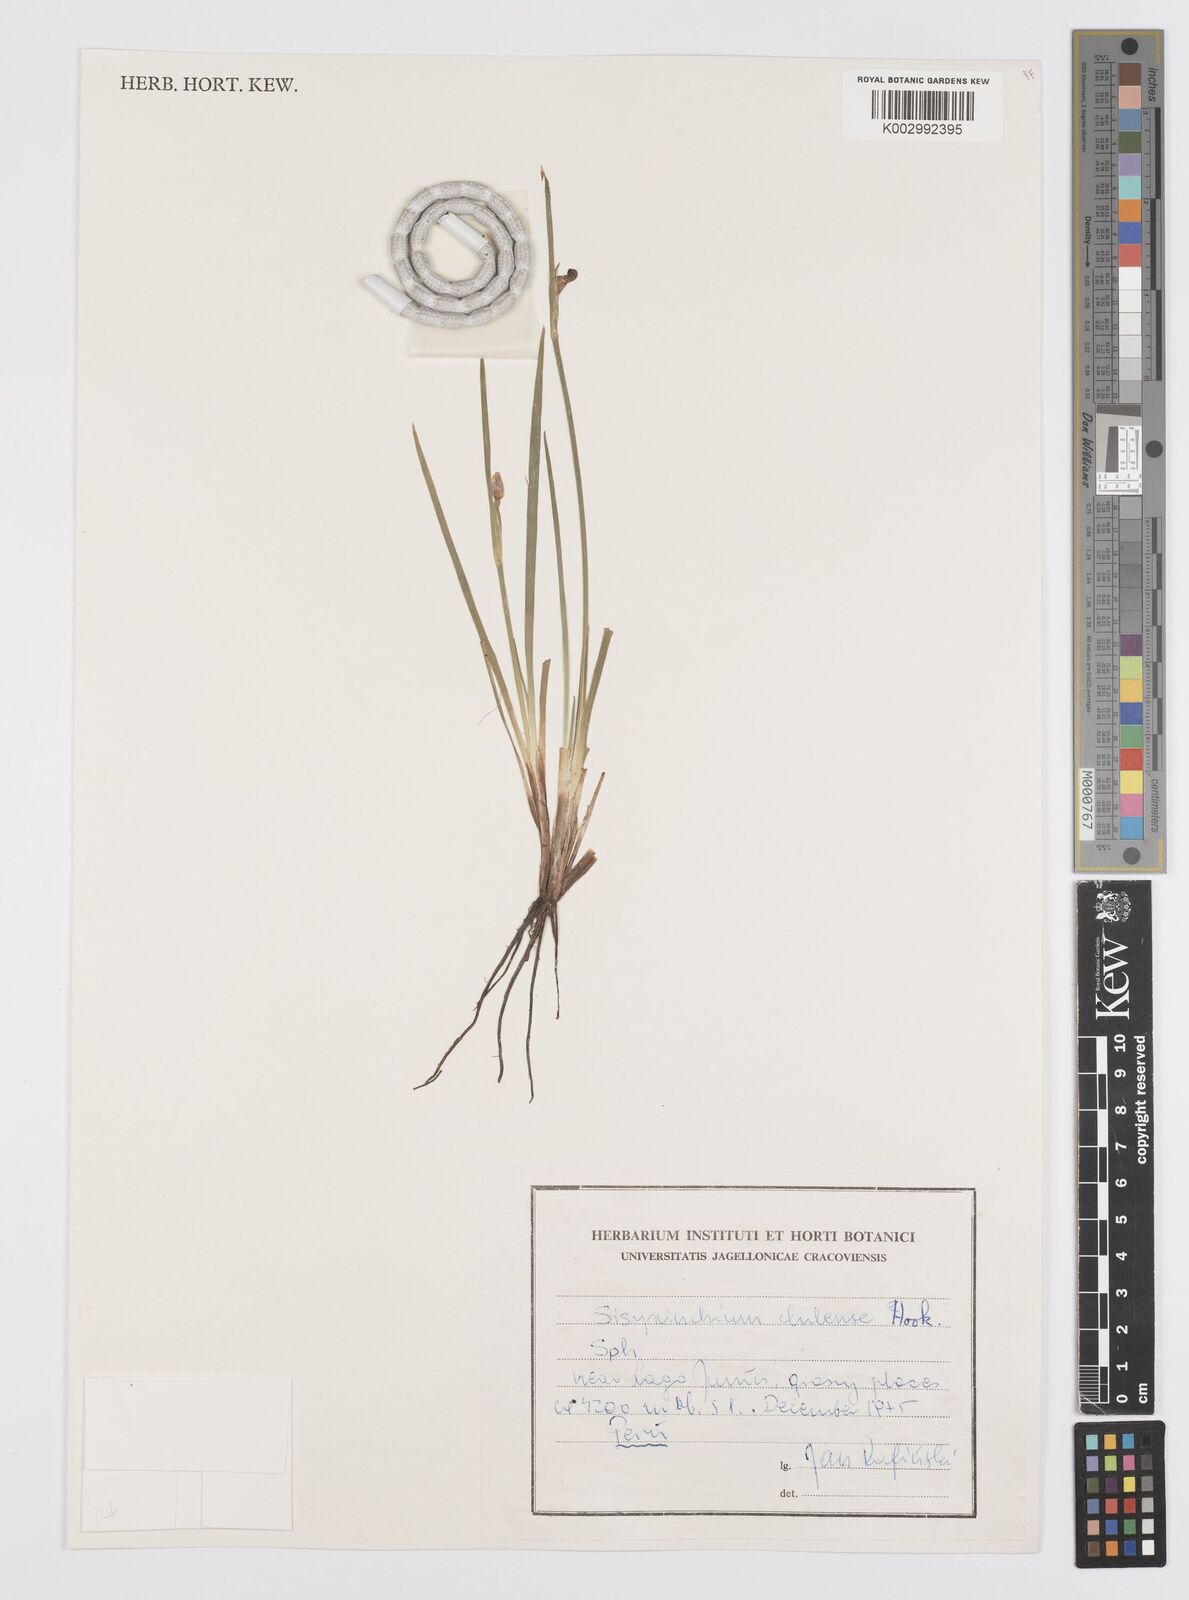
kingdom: Plantae
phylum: Tracheophyta
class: Liliopsida
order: Asparagales
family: Iridaceae
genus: Sisyrinchium
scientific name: Sisyrinchium chilense
